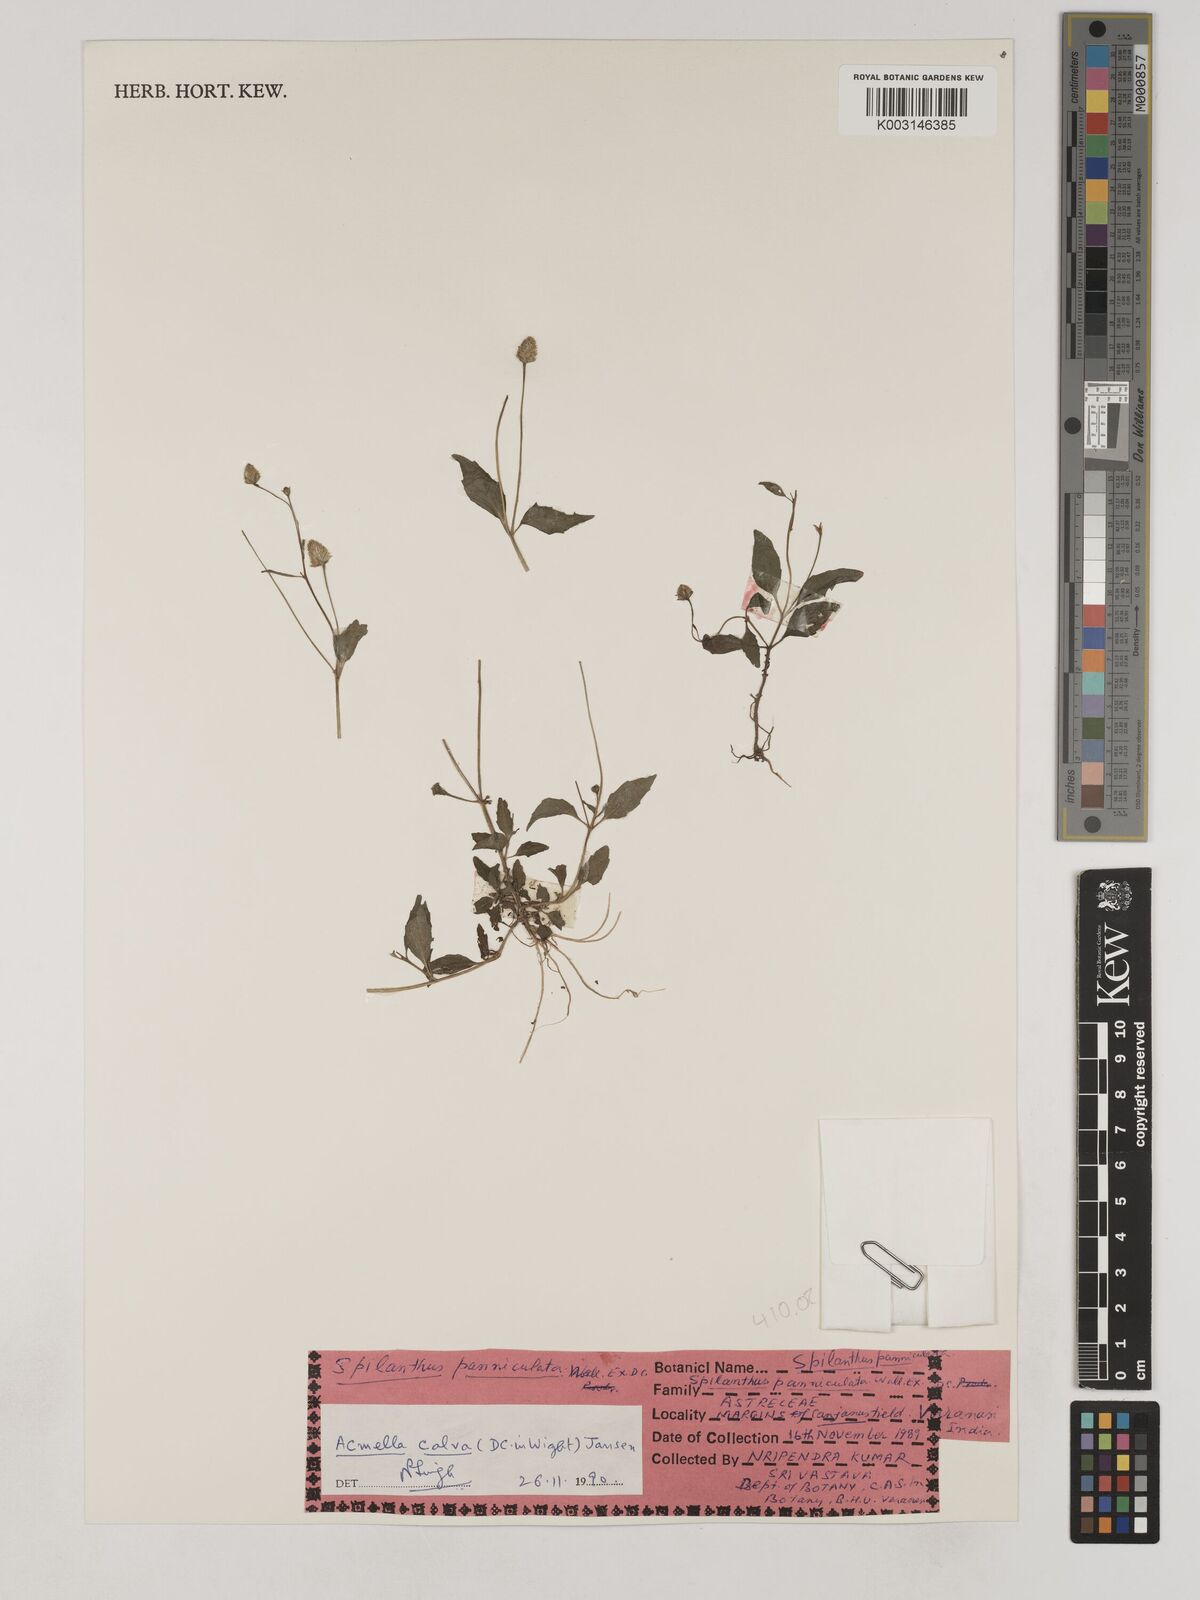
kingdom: Plantae
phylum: Tracheophyta
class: Magnoliopsida
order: Asterales
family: Asteraceae
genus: Acmella
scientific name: Acmella calva
